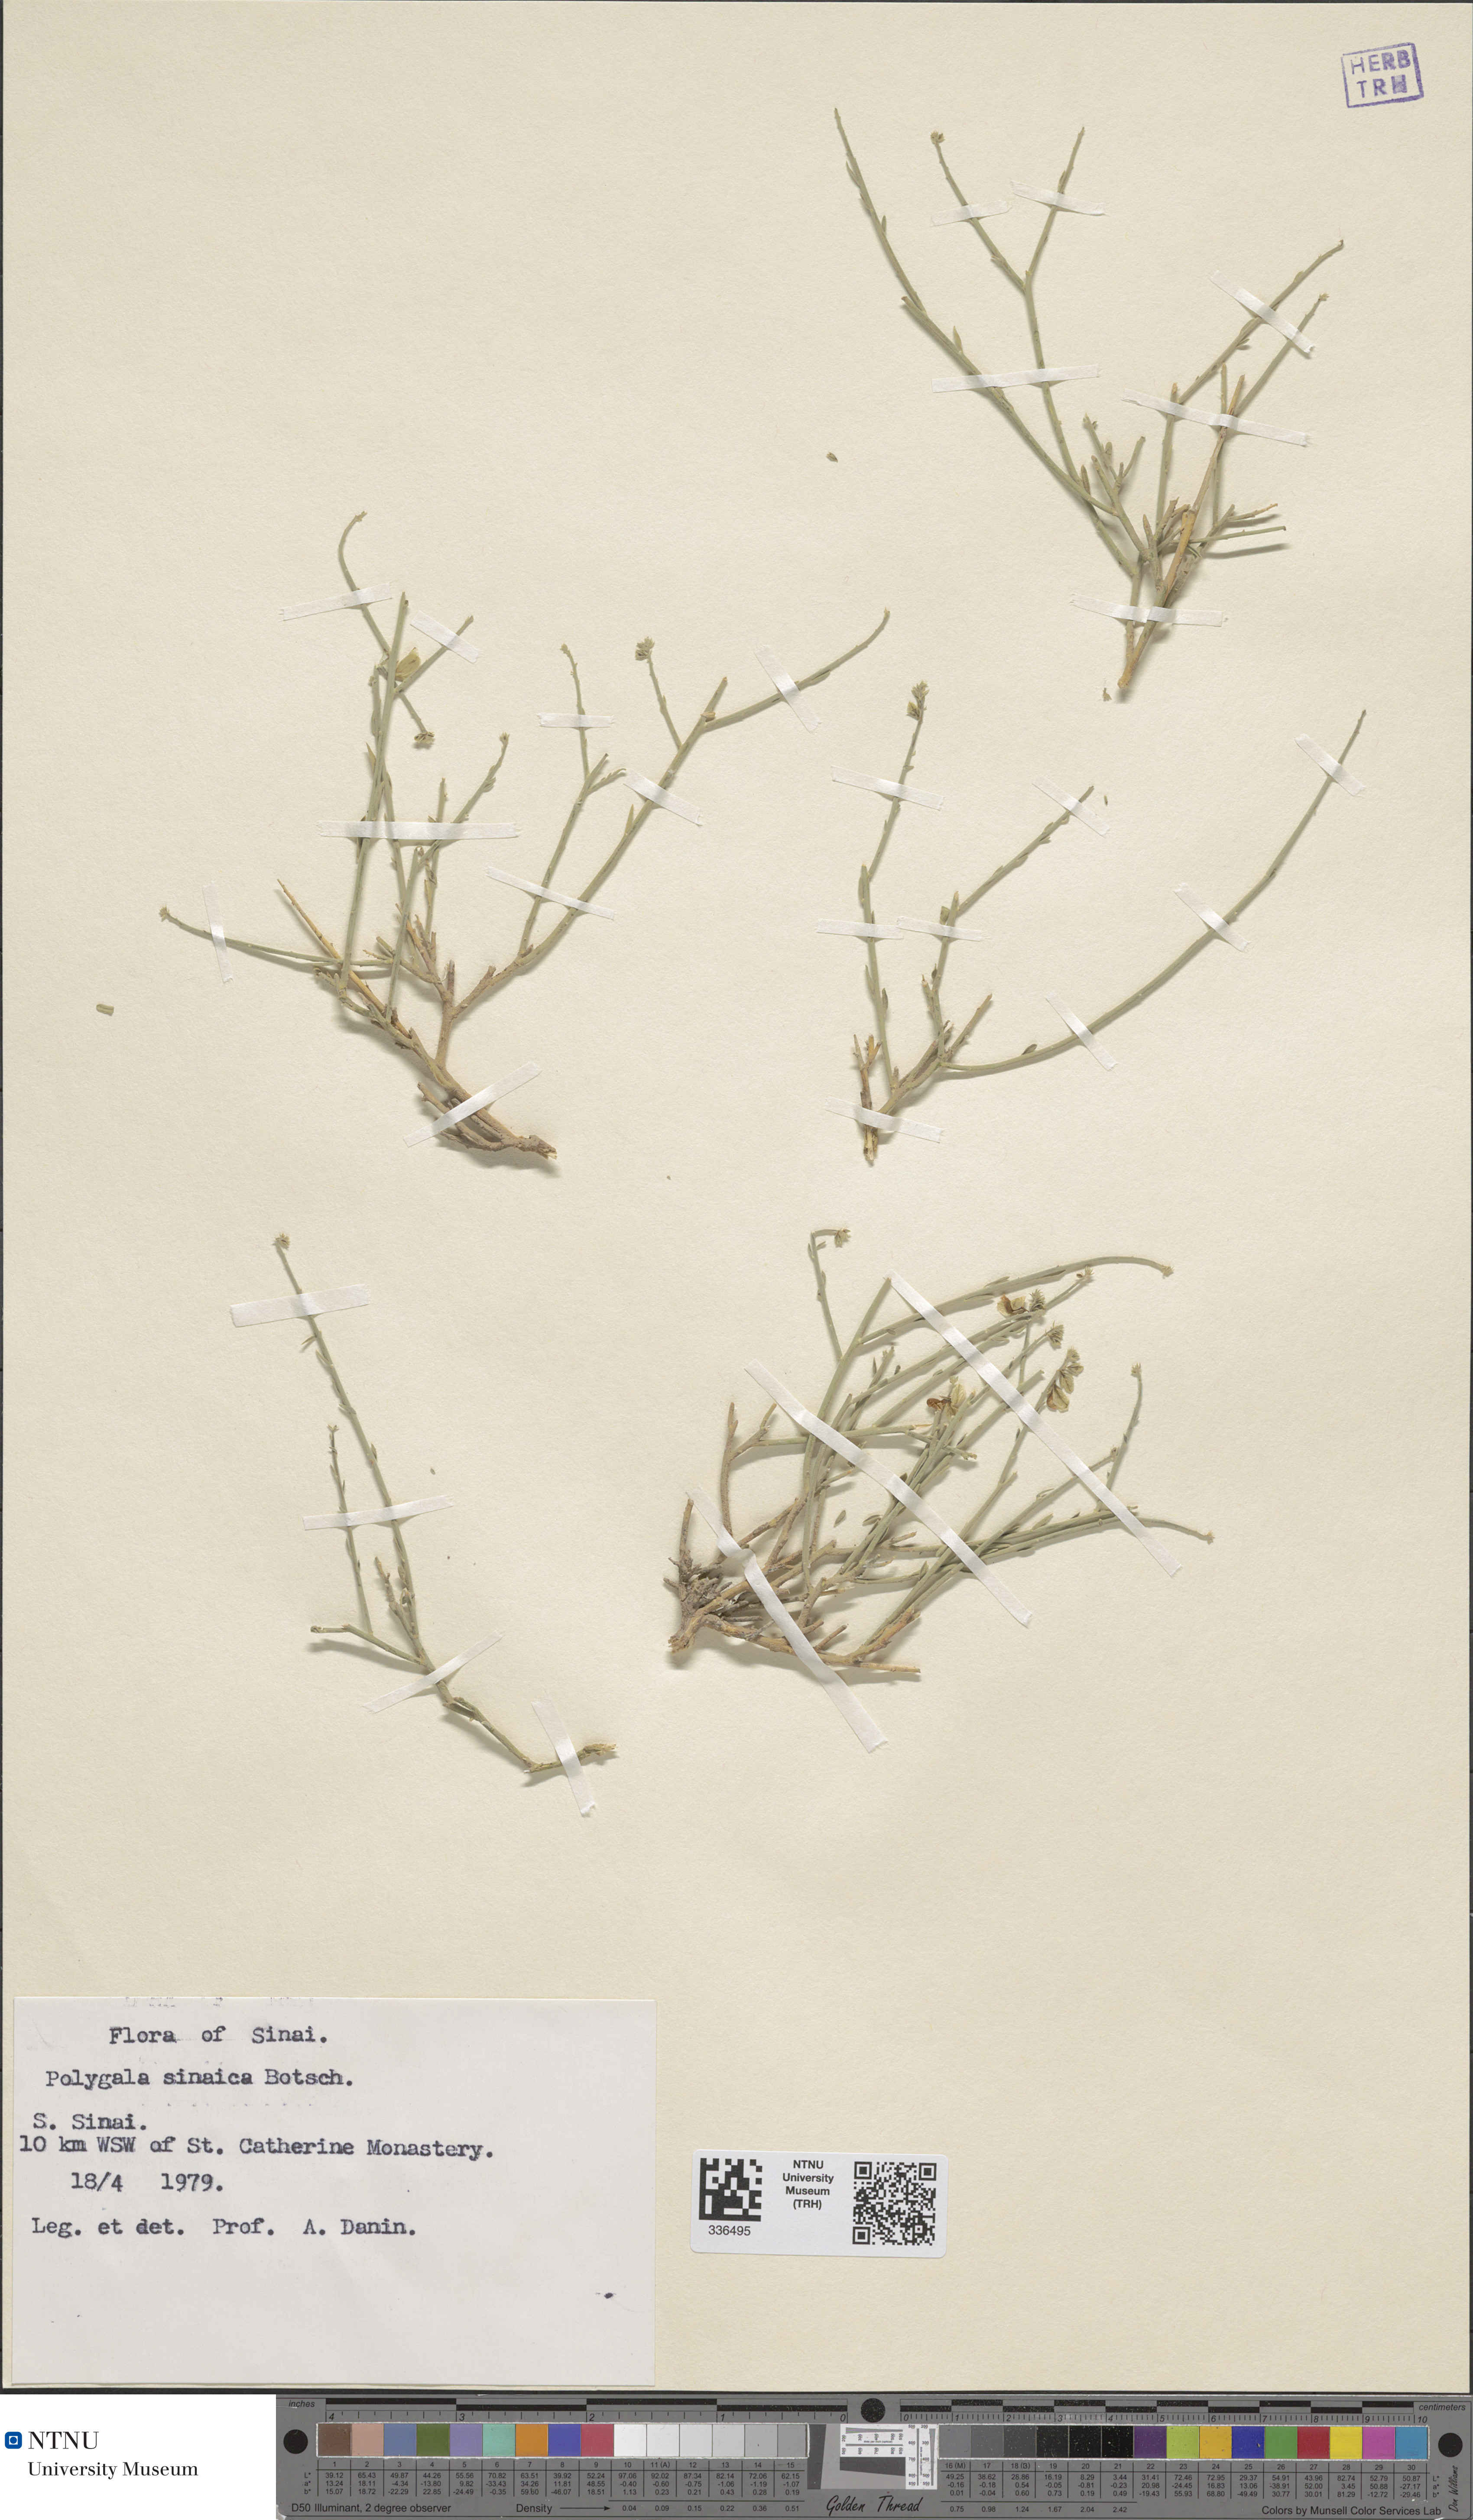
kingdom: Plantae
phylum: Tracheophyta
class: Magnoliopsida
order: Fabales
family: Polygalaceae
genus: Polygala
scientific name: Polygala sinaica
